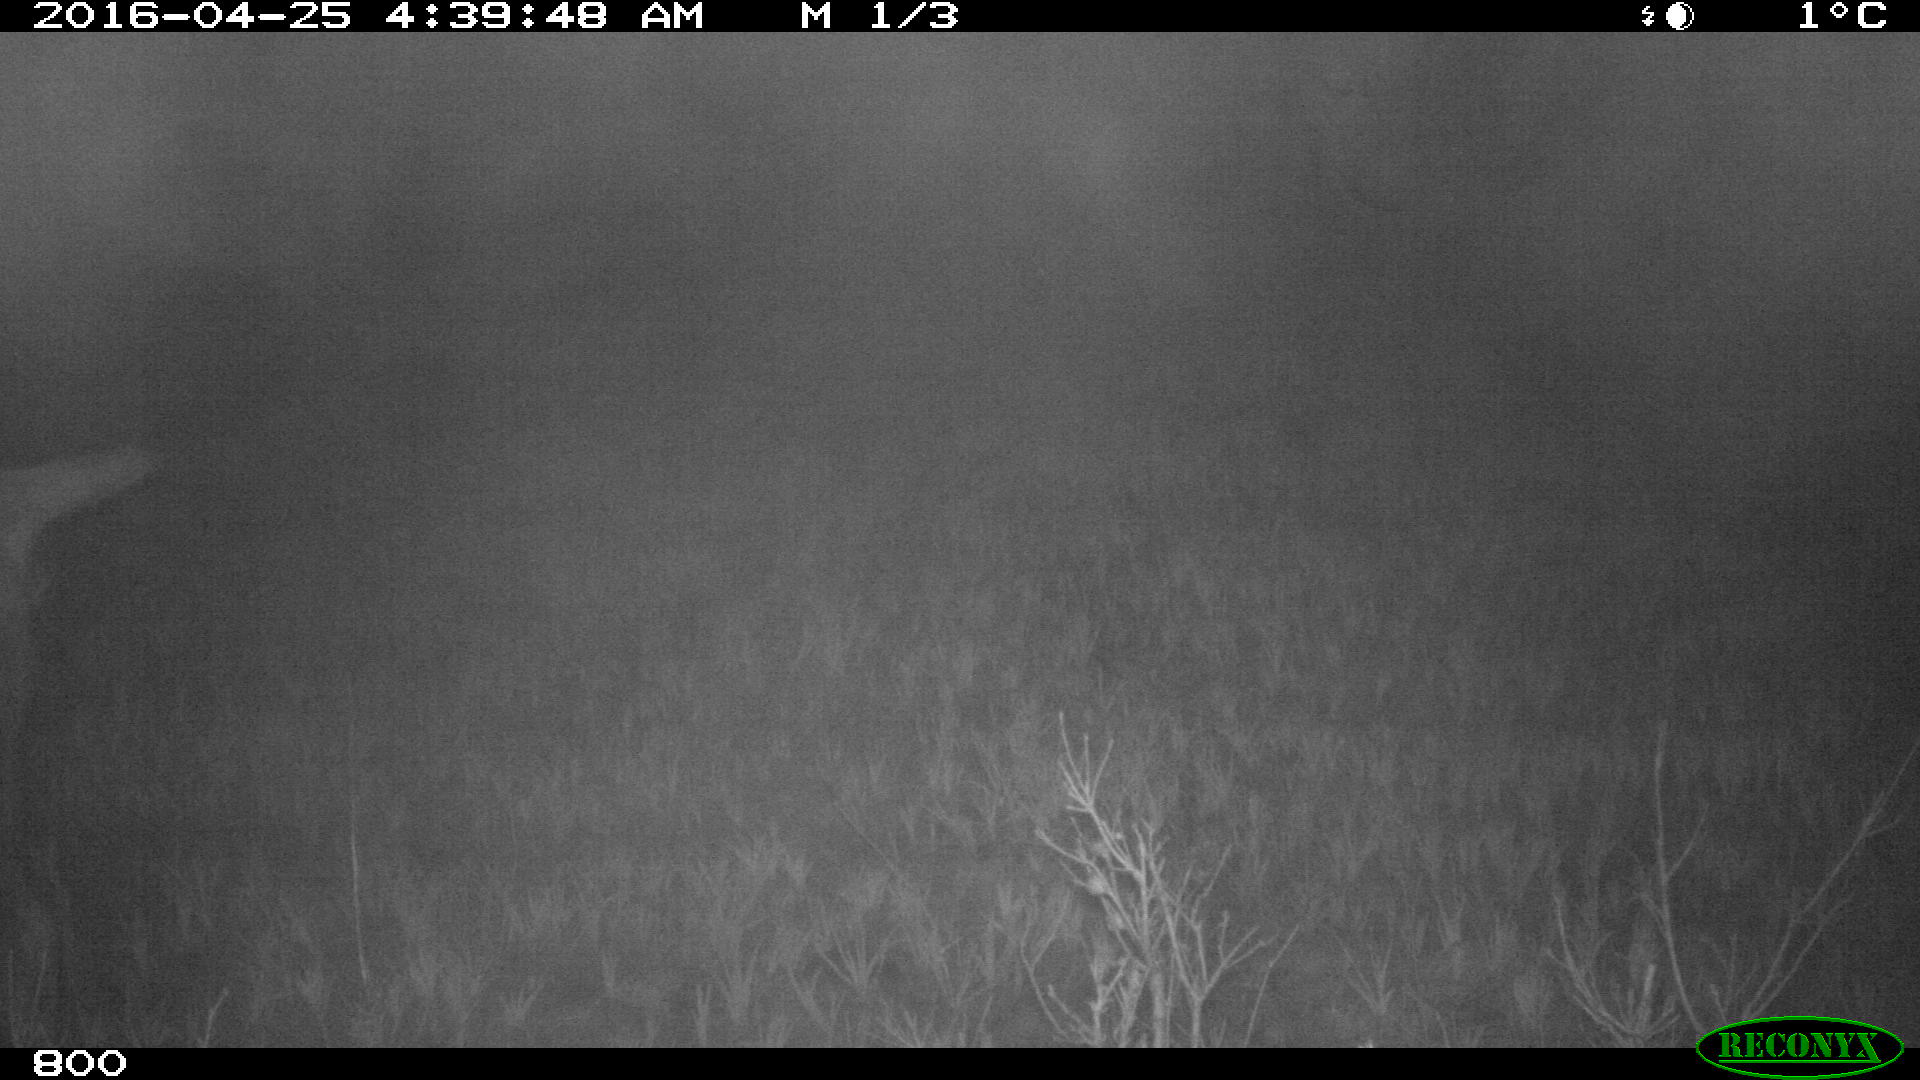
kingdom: Animalia
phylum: Chordata
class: Mammalia
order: Artiodactyla
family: Bovidae
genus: Bos
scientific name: Bos taurus
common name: Domesticated cattle
